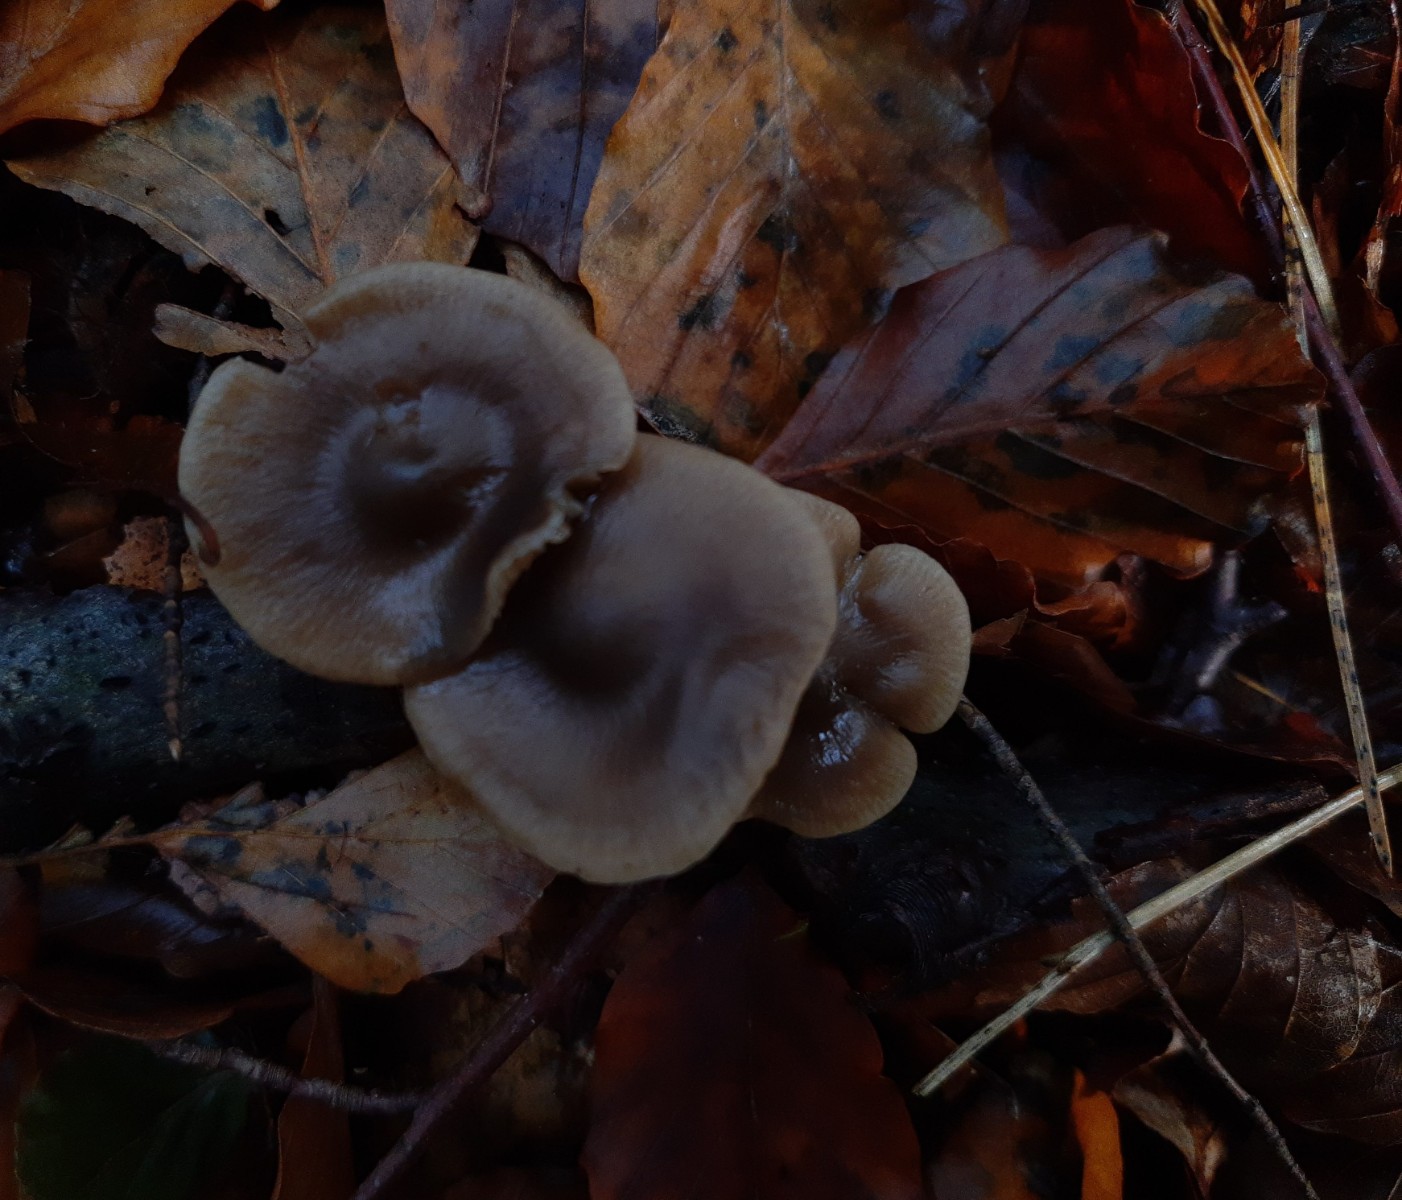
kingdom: Fungi
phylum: Basidiomycota
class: Agaricomycetes
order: Agaricales
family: Lyophyllaceae
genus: Lyophyllum
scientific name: Lyophyllum
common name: gråblad
